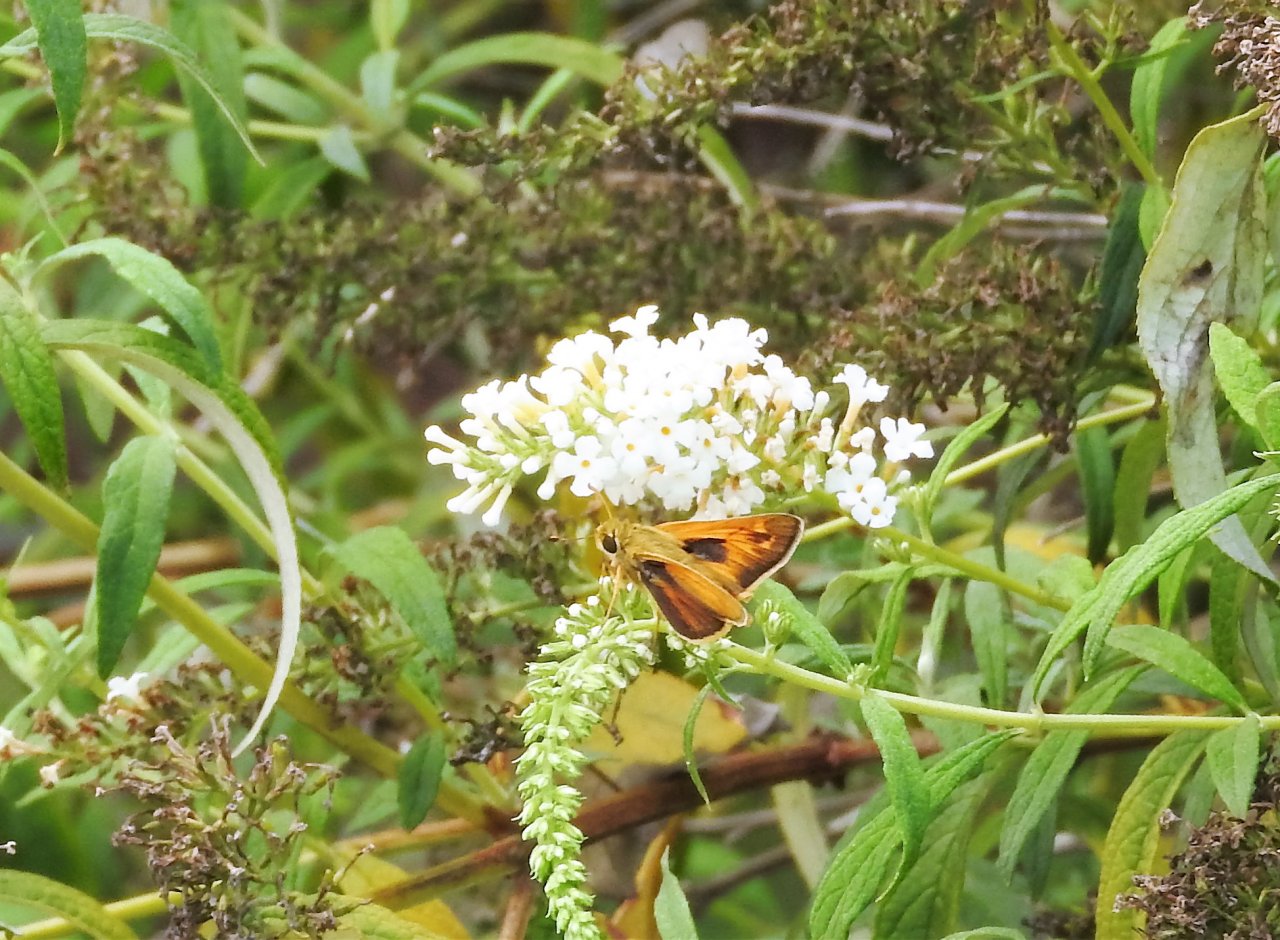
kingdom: Animalia
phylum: Arthropoda
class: Insecta
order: Lepidoptera
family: Hesperiidae
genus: Atalopedes
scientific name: Atalopedes campestris
